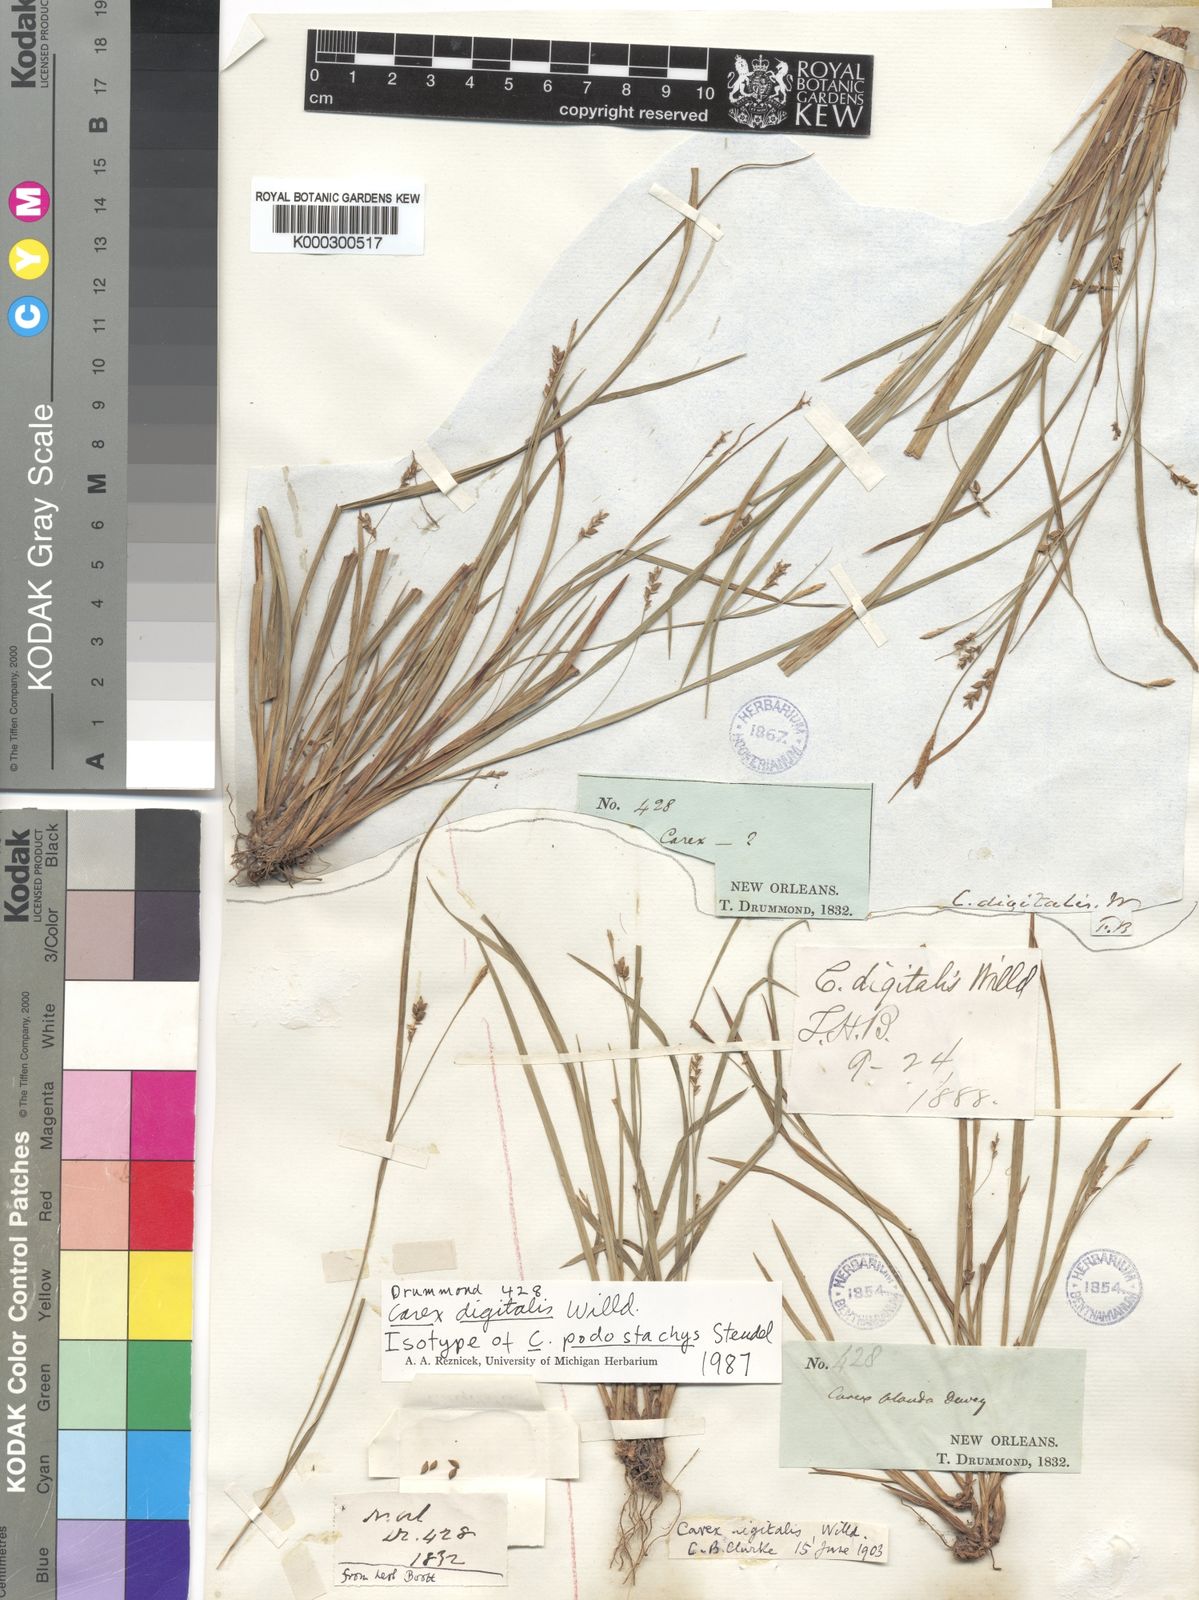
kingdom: Plantae
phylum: Tracheophyta
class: Liliopsida
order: Poales
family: Cyperaceae
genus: Carex
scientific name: Carex abscondita
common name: Thicket sedge
